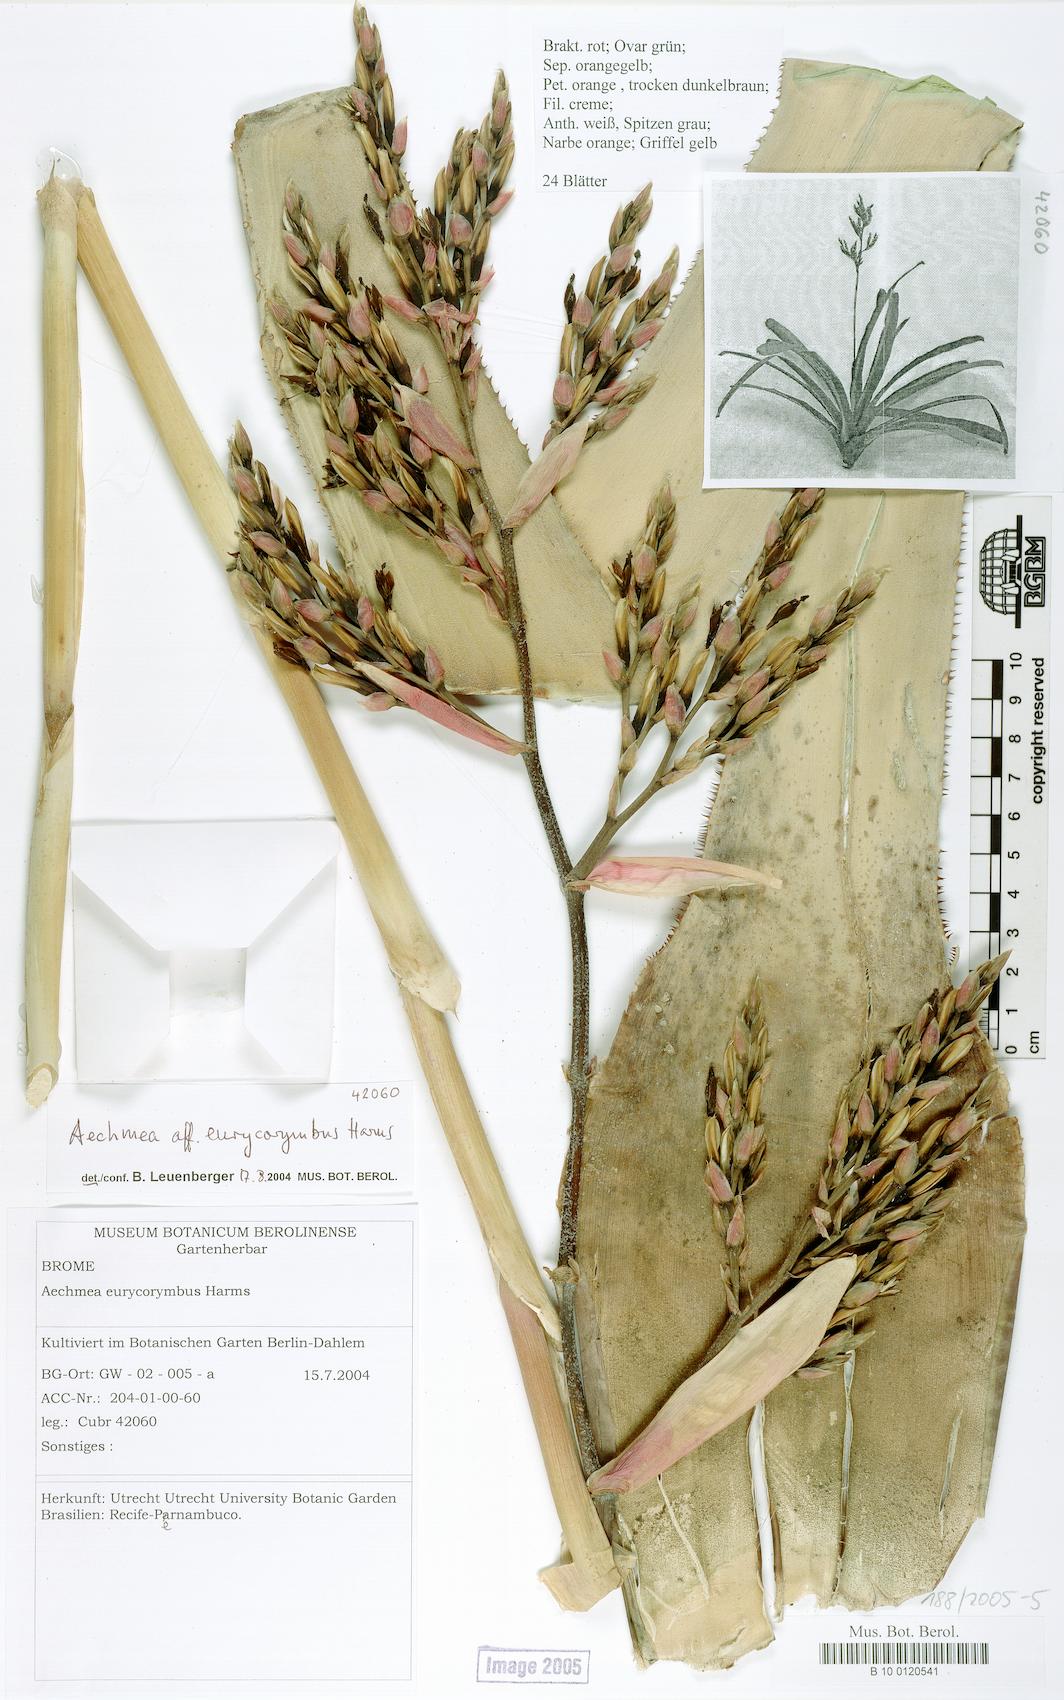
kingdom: Plantae
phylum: Tracheophyta
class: Liliopsida
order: Poales
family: Bromeliaceae
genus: Aechmea
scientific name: Aechmea eurycorymbus
